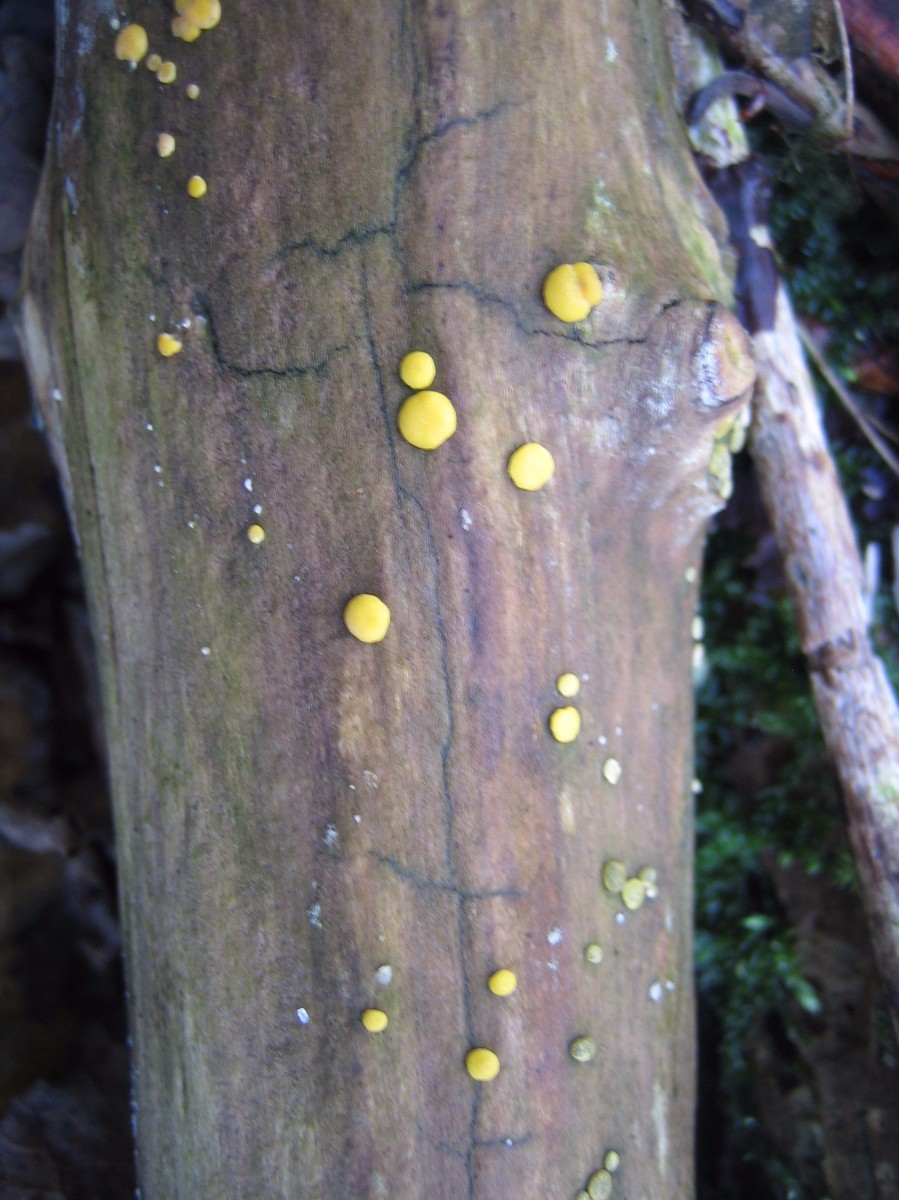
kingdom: Fungi
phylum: Ascomycota
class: Sordariomycetes
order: Hypocreales
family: Hypocreaceae
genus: Trichoderma
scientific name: Trichoderma aureoviride
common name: æggegul kødkerne
